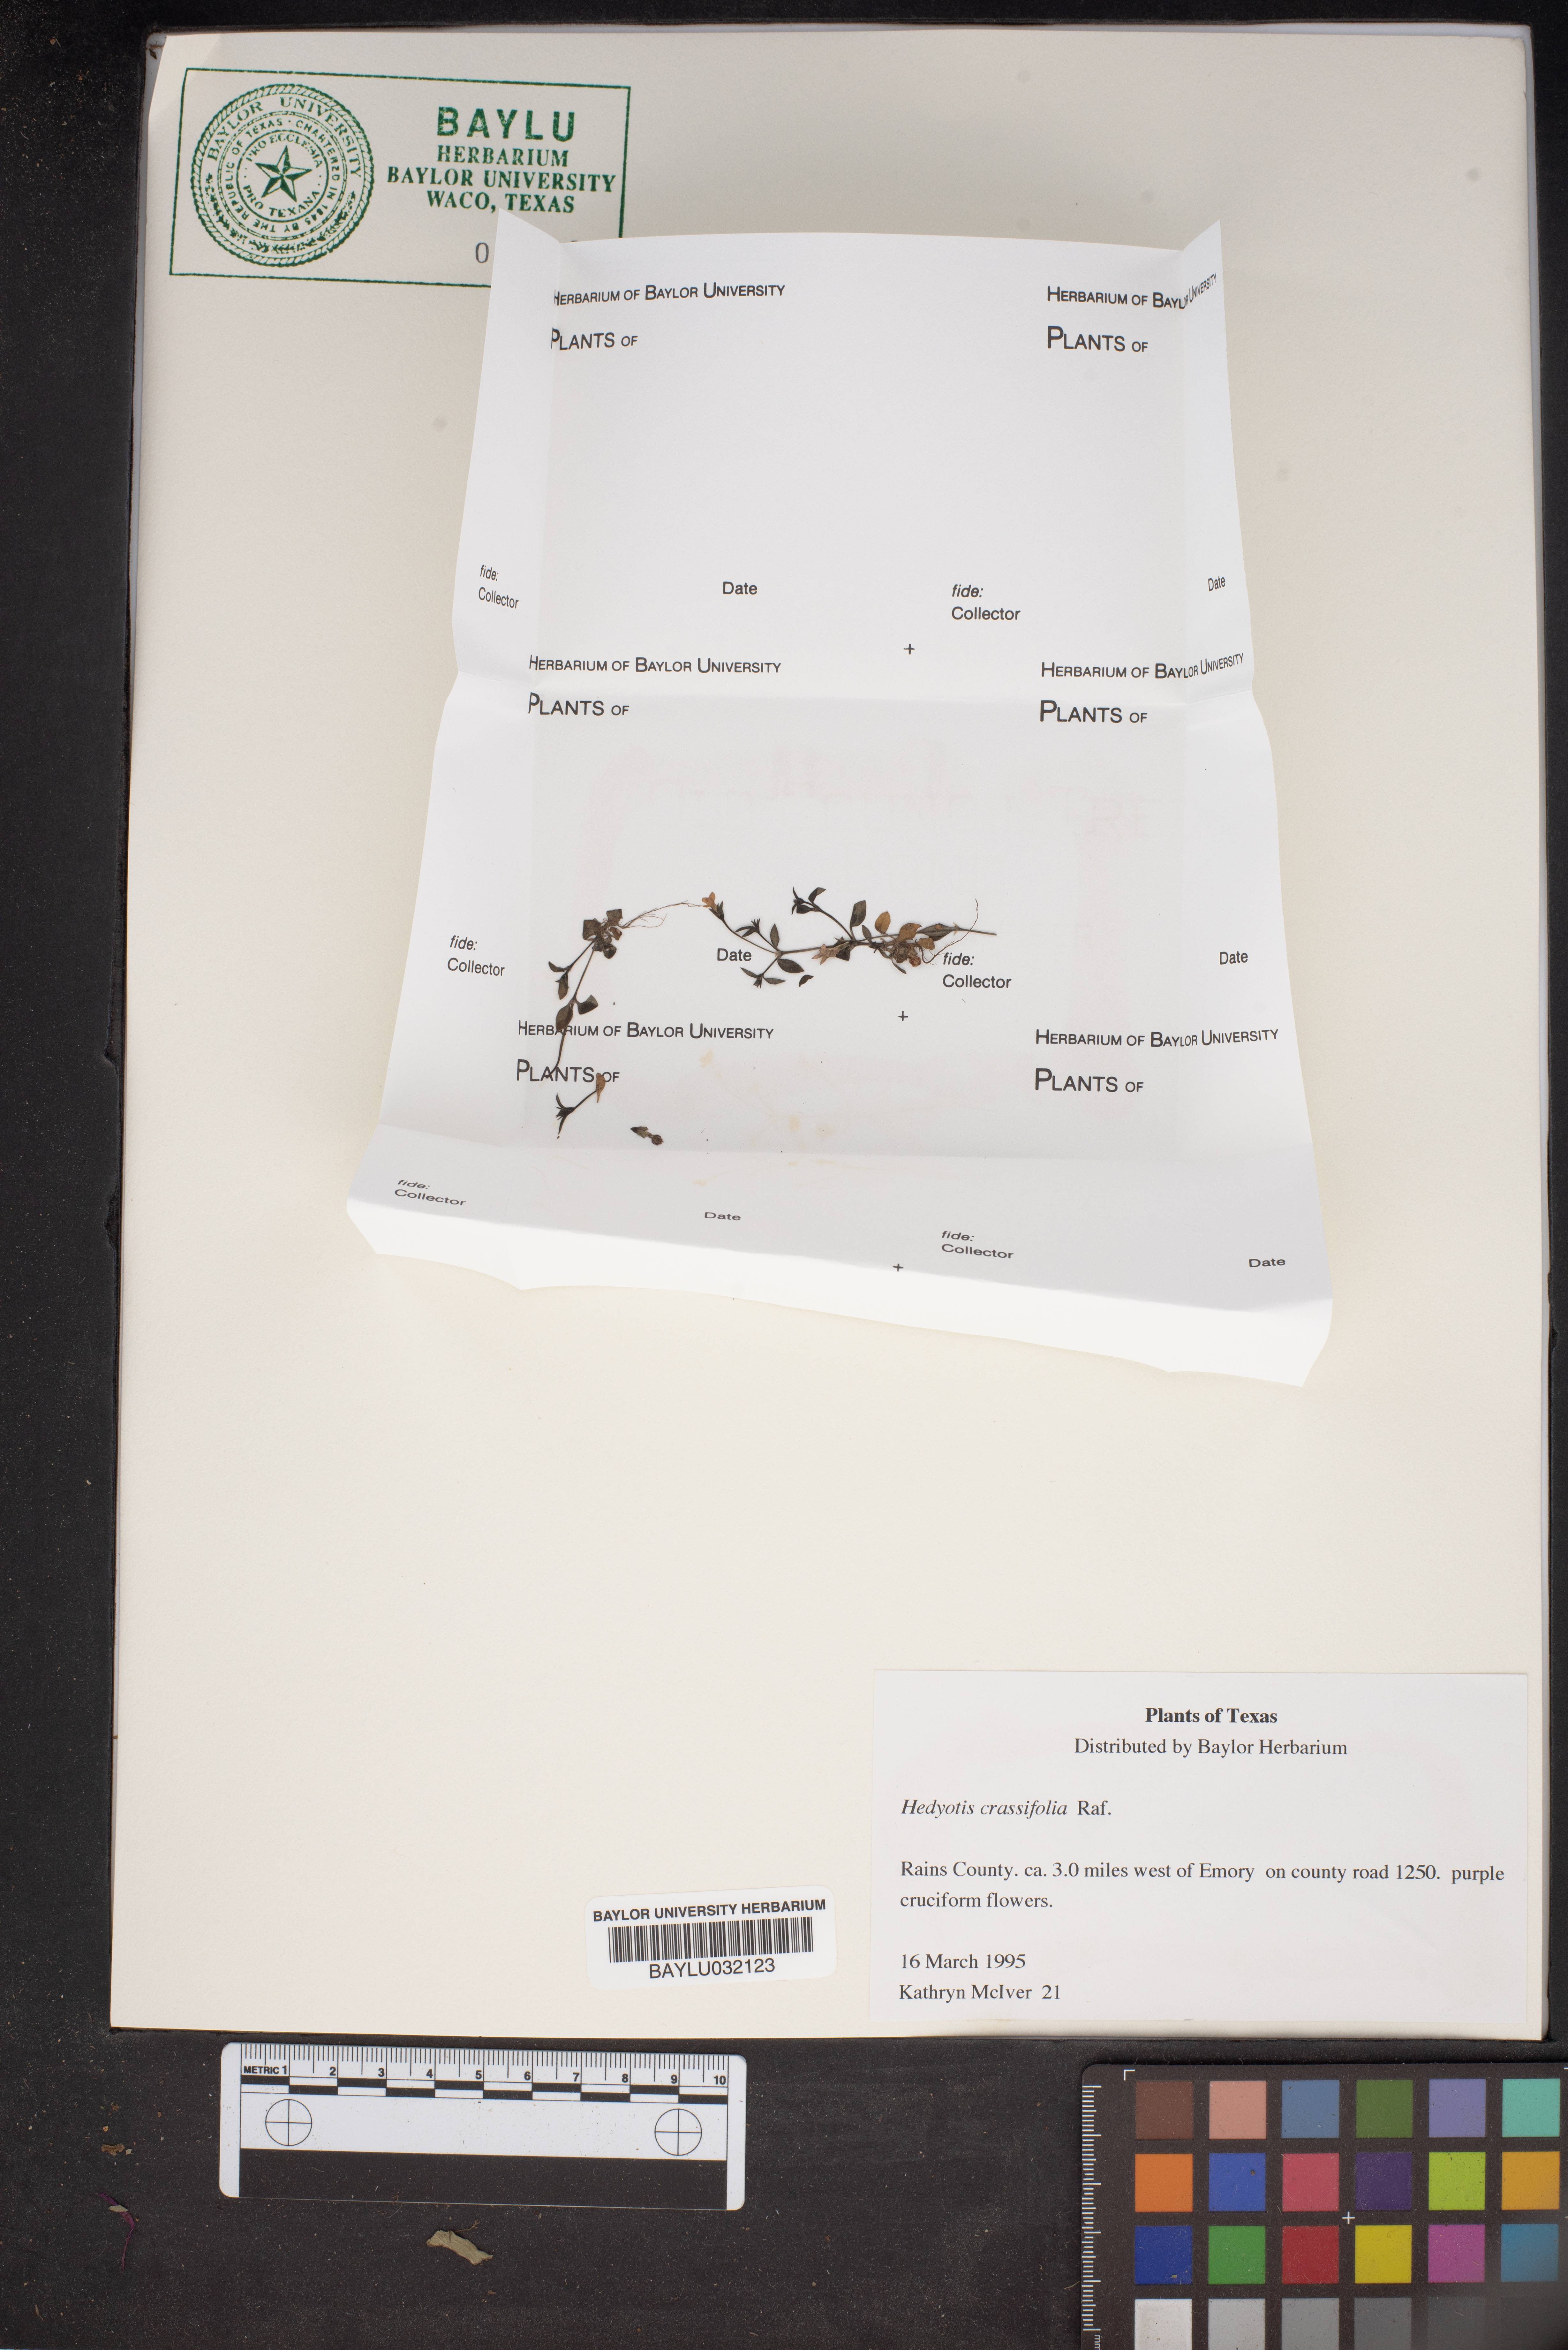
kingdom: Plantae
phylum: Tracheophyta
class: Magnoliopsida
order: Gentianales
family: Rubiaceae
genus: Houstonia
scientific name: Houstonia pusilla
